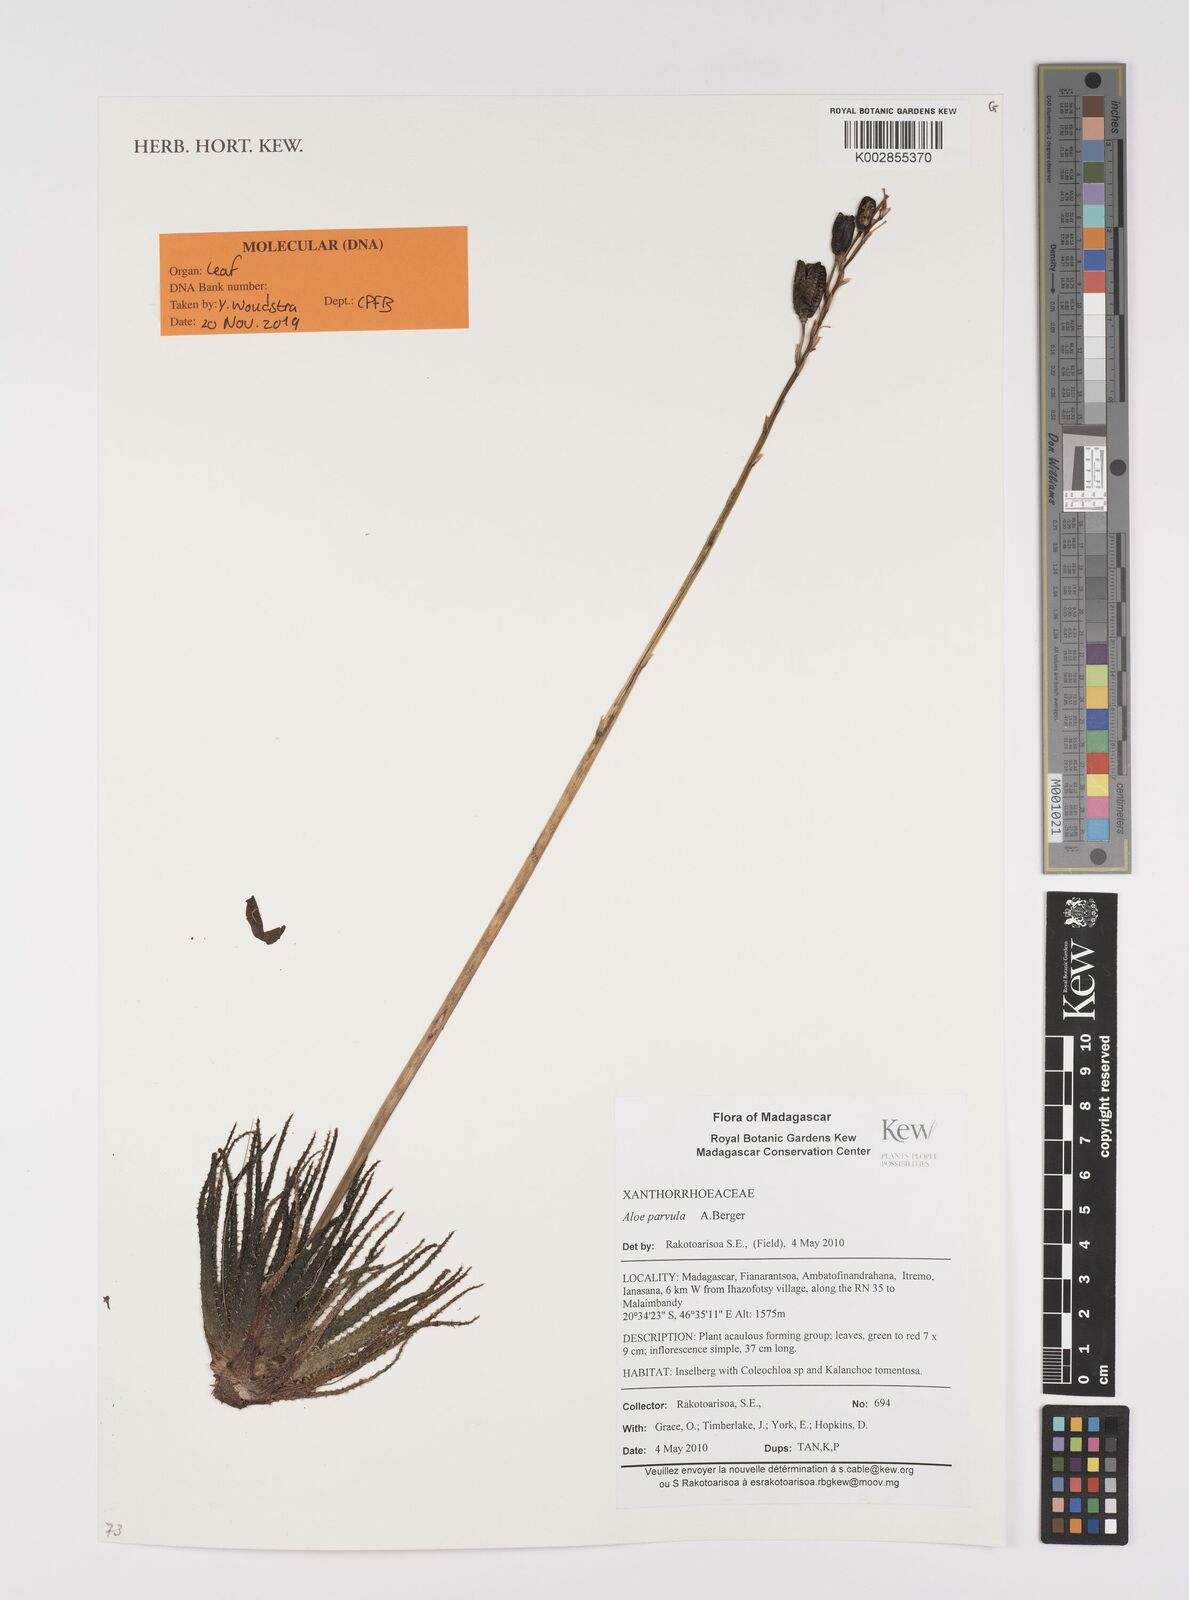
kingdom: Plantae
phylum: Tracheophyta
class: Liliopsida
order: Asparagales
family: Asphodelaceae
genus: Aloe
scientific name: Aloe parvula
